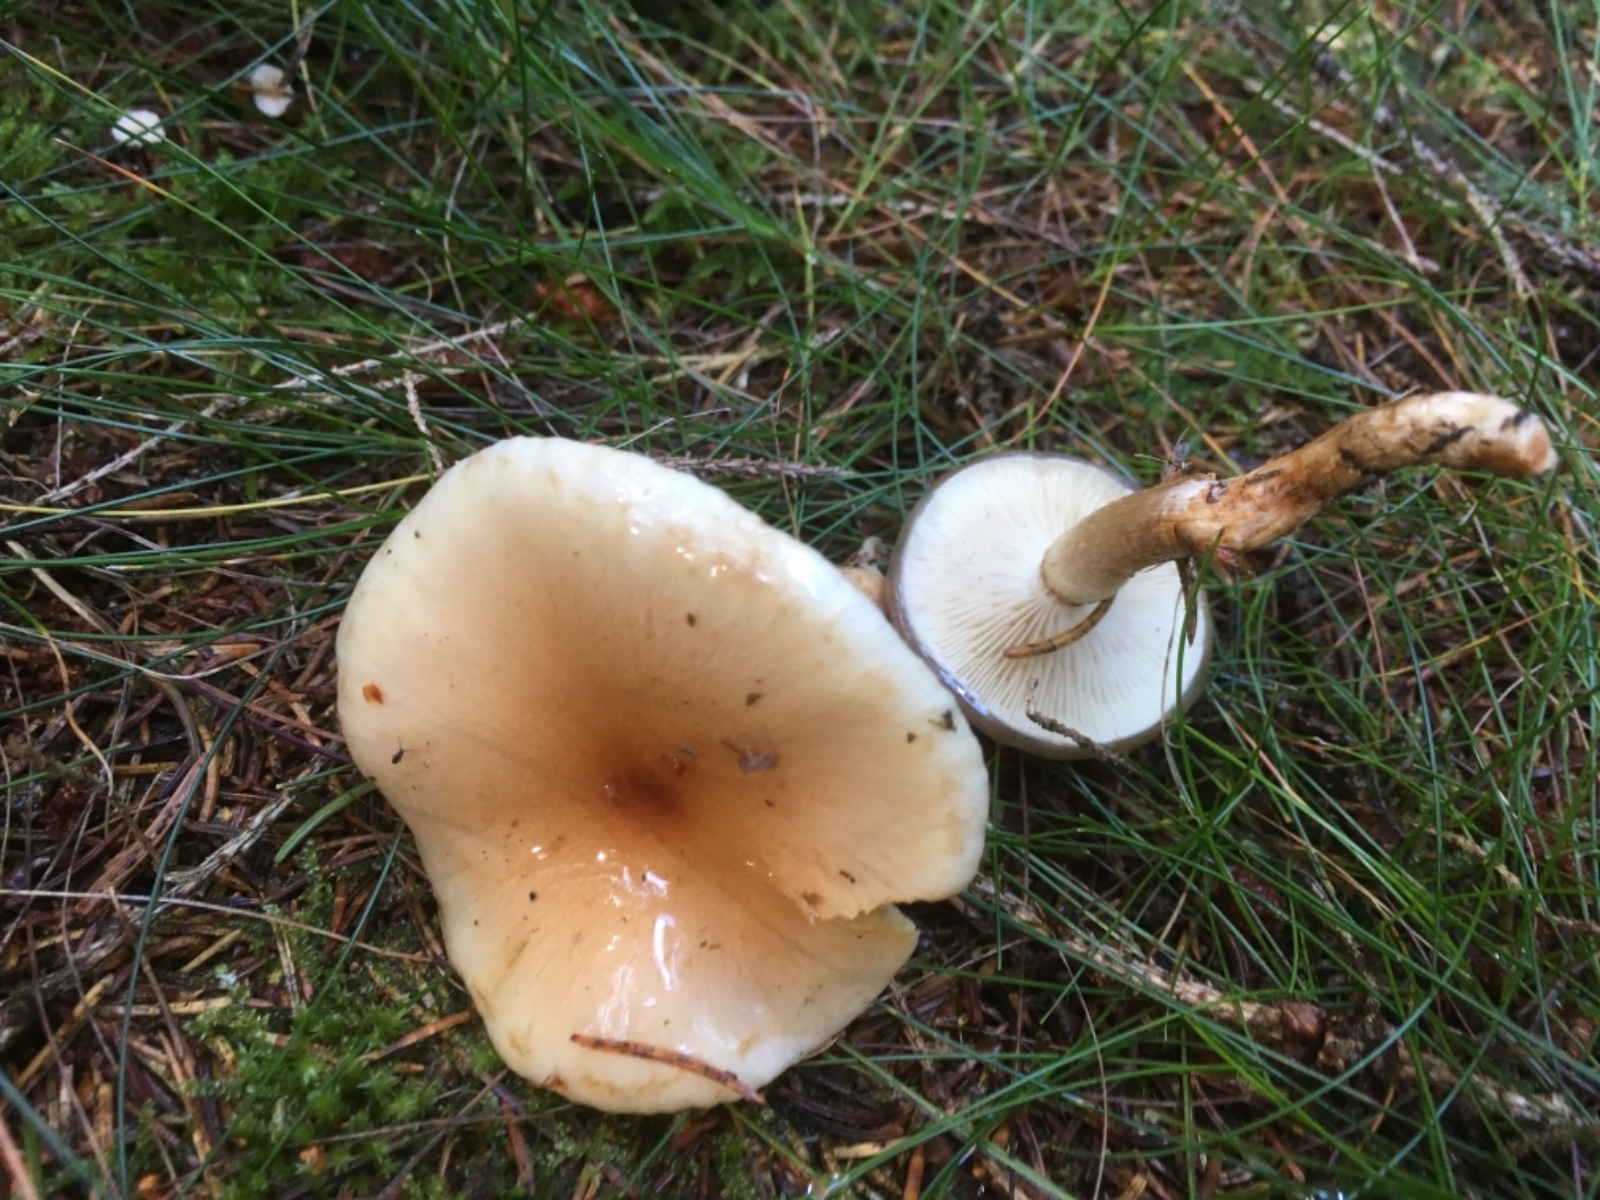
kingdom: Fungi
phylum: Basidiomycota
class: Agaricomycetes
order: Agaricales
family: Strophariaceae
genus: Pholiota
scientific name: Pholiota lenta
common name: løv-skælhat
